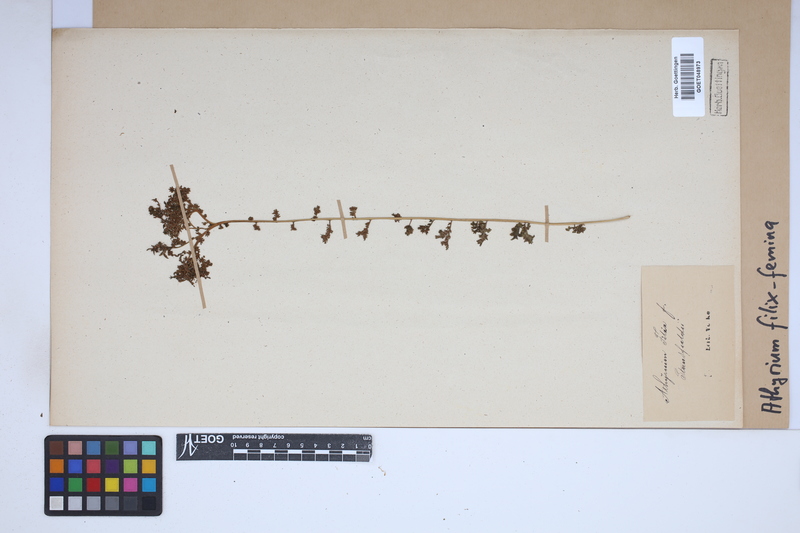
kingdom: Plantae
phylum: Tracheophyta
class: Polypodiopsida
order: Polypodiales
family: Athyriaceae
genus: Athyrium
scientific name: Athyrium filix-femina
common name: Lady fern
